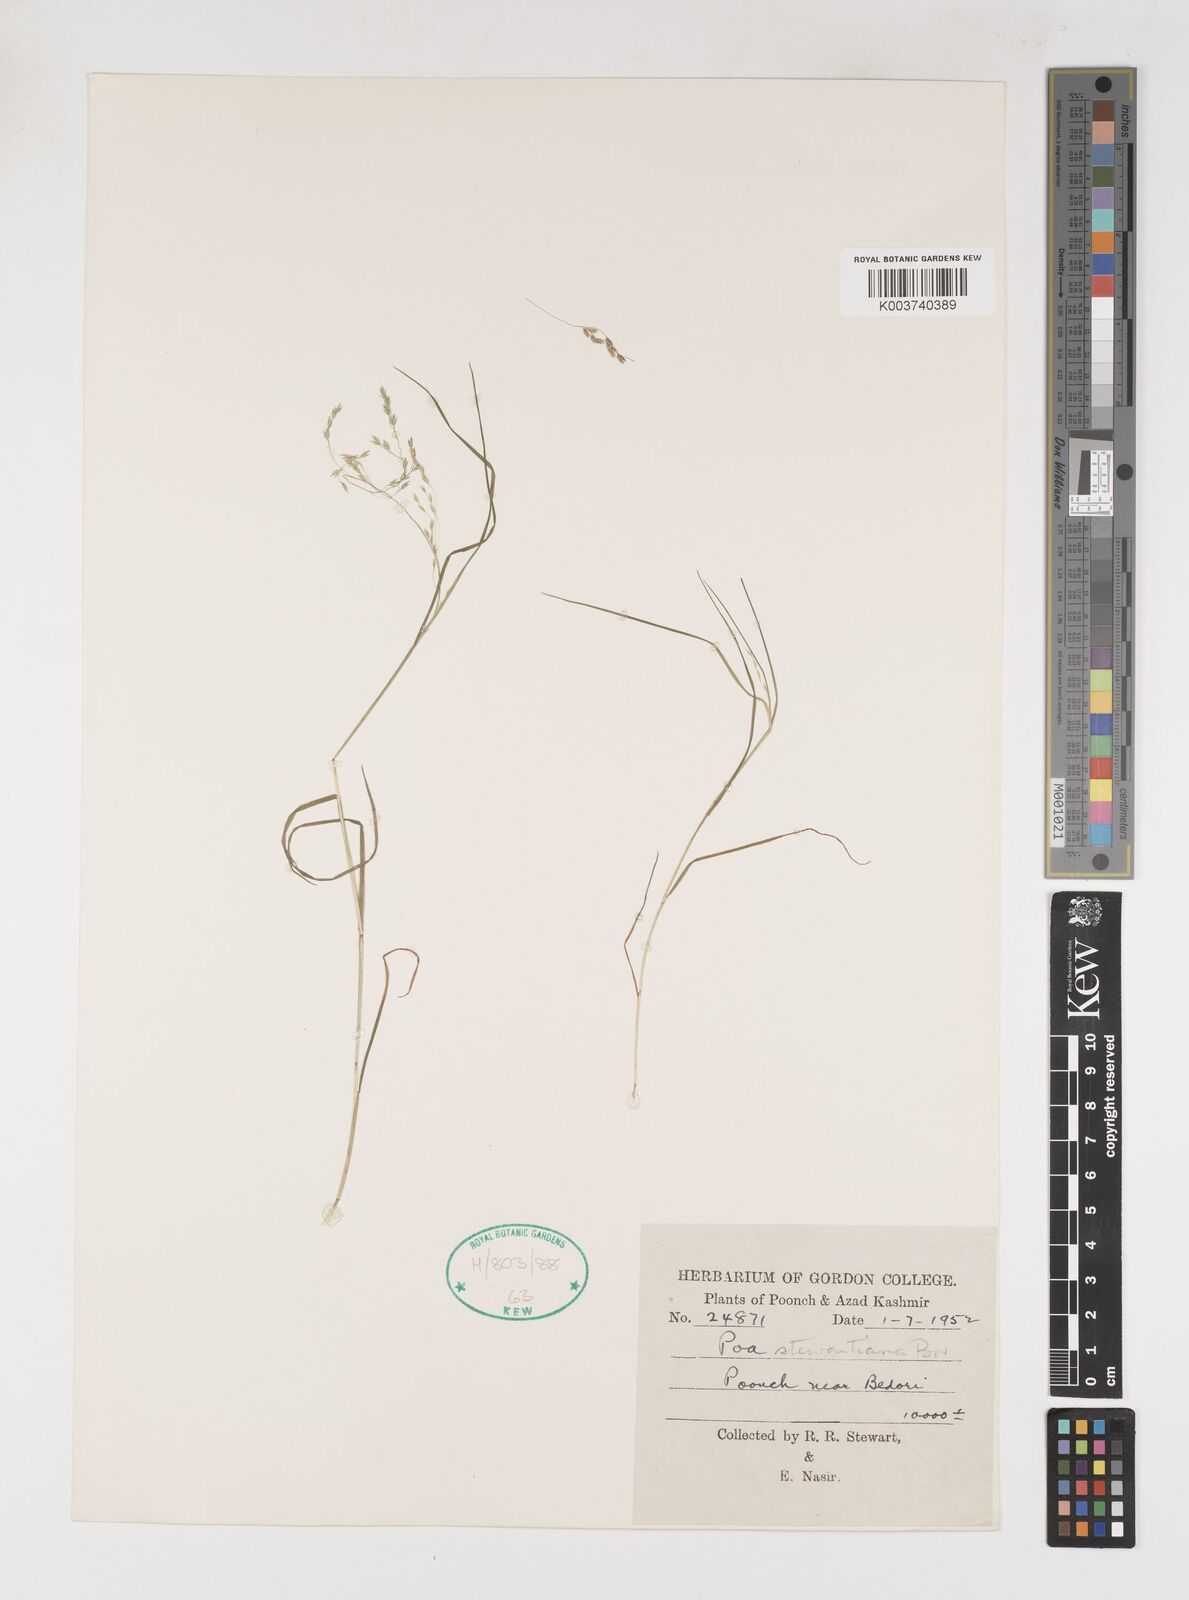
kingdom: Plantae
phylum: Tracheophyta
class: Liliopsida
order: Poales
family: Poaceae
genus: Poa
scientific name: Poa stewartiana
